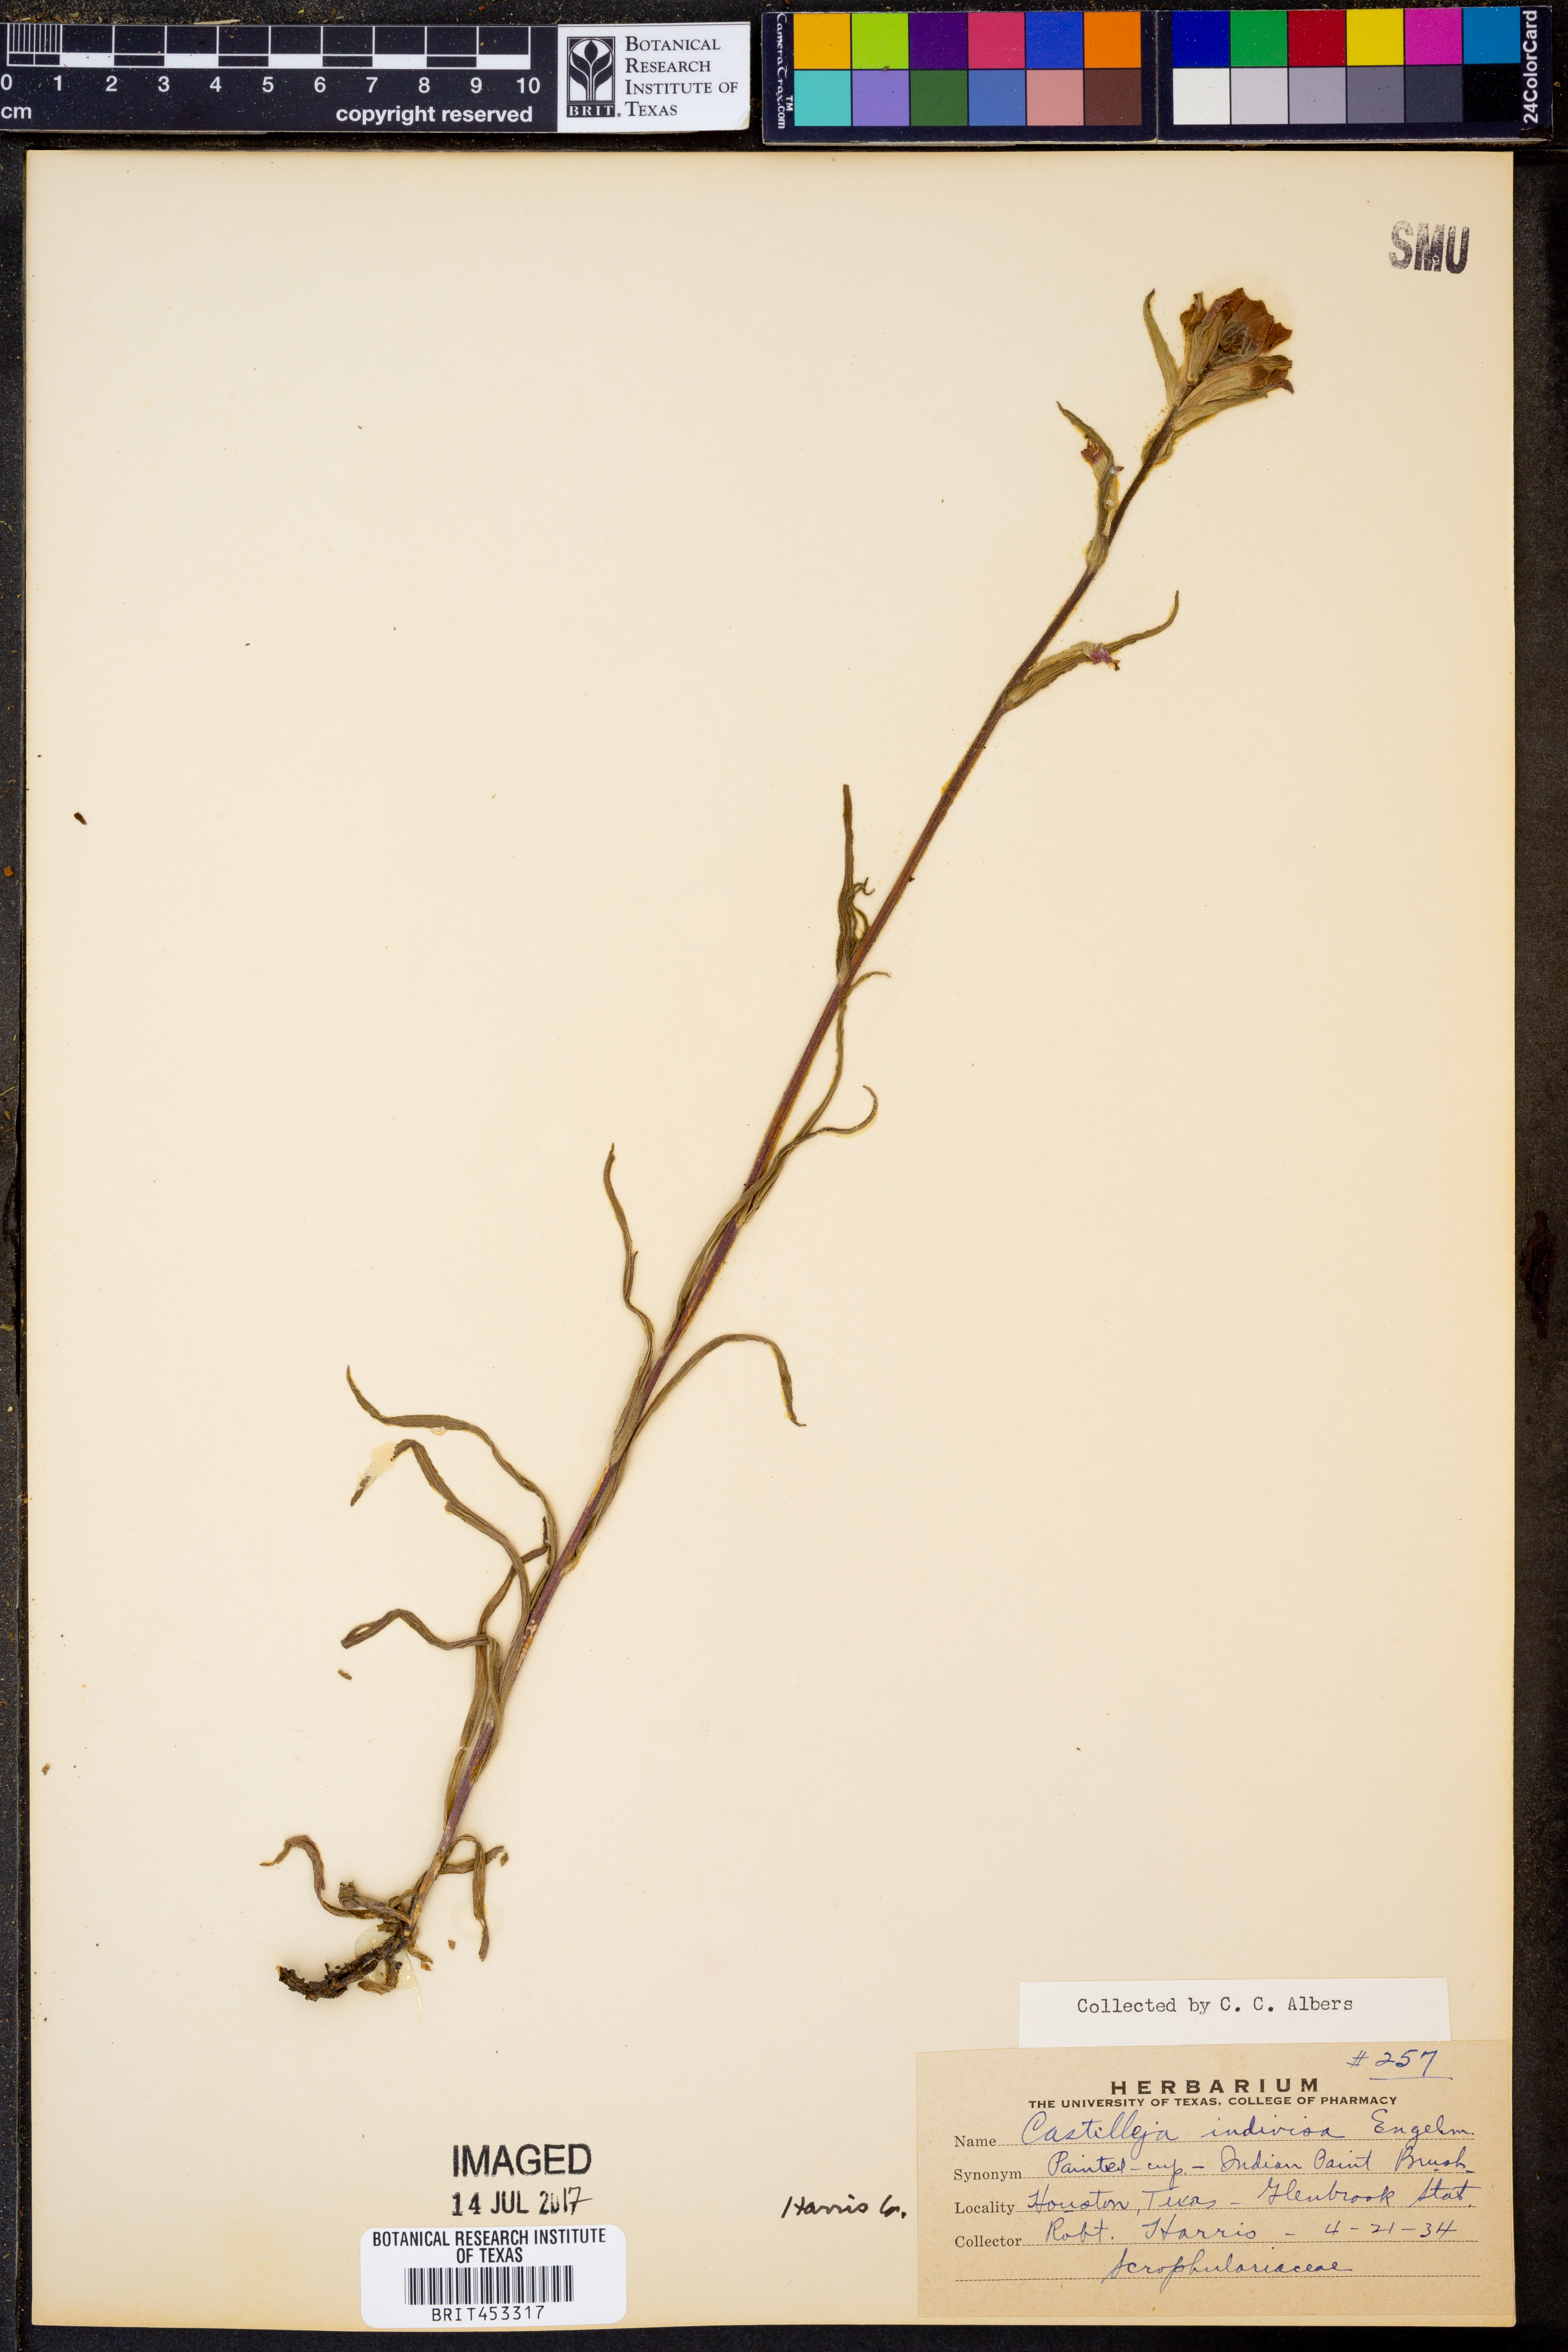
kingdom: Plantae
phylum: Tracheophyta
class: Magnoliopsida
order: Lamiales
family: Orobanchaceae
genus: Castilleja
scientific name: Castilleja indivisa
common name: Texas paintbrush
